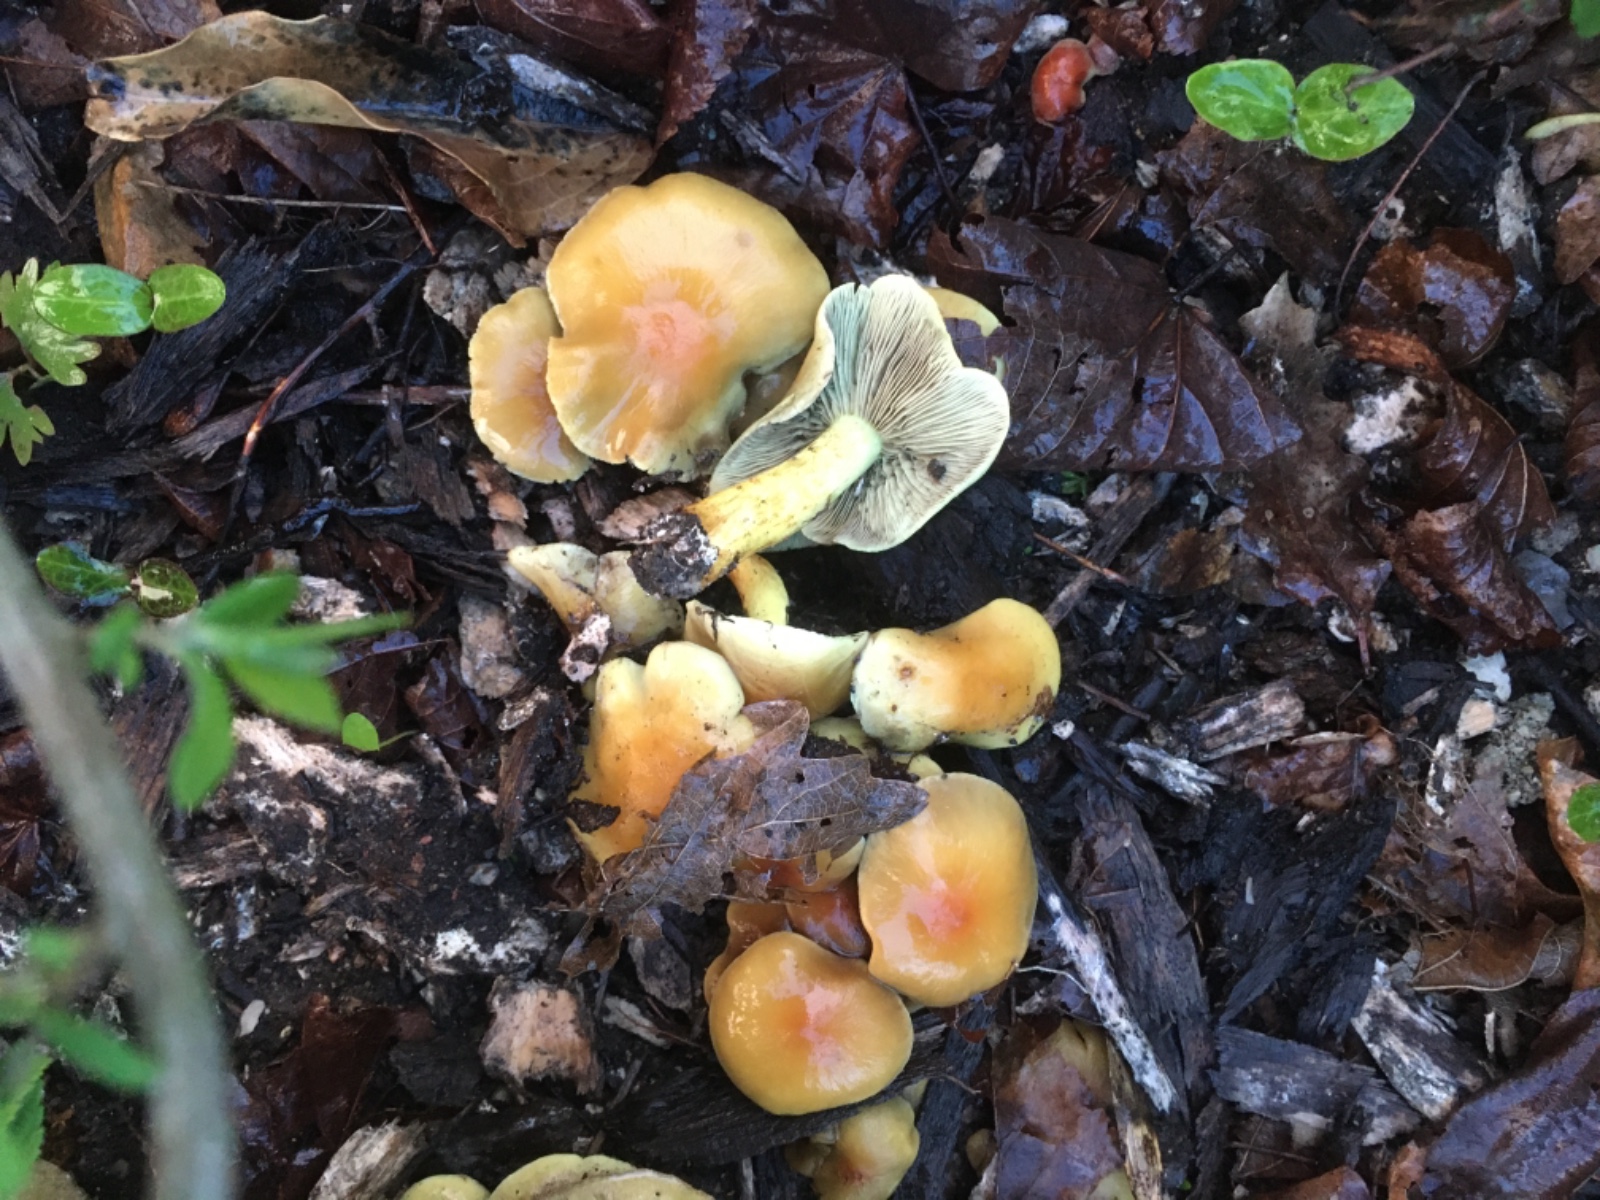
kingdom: Fungi
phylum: Basidiomycota
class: Agaricomycetes
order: Agaricales
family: Strophariaceae
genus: Hypholoma
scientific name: Hypholoma fasciculare
